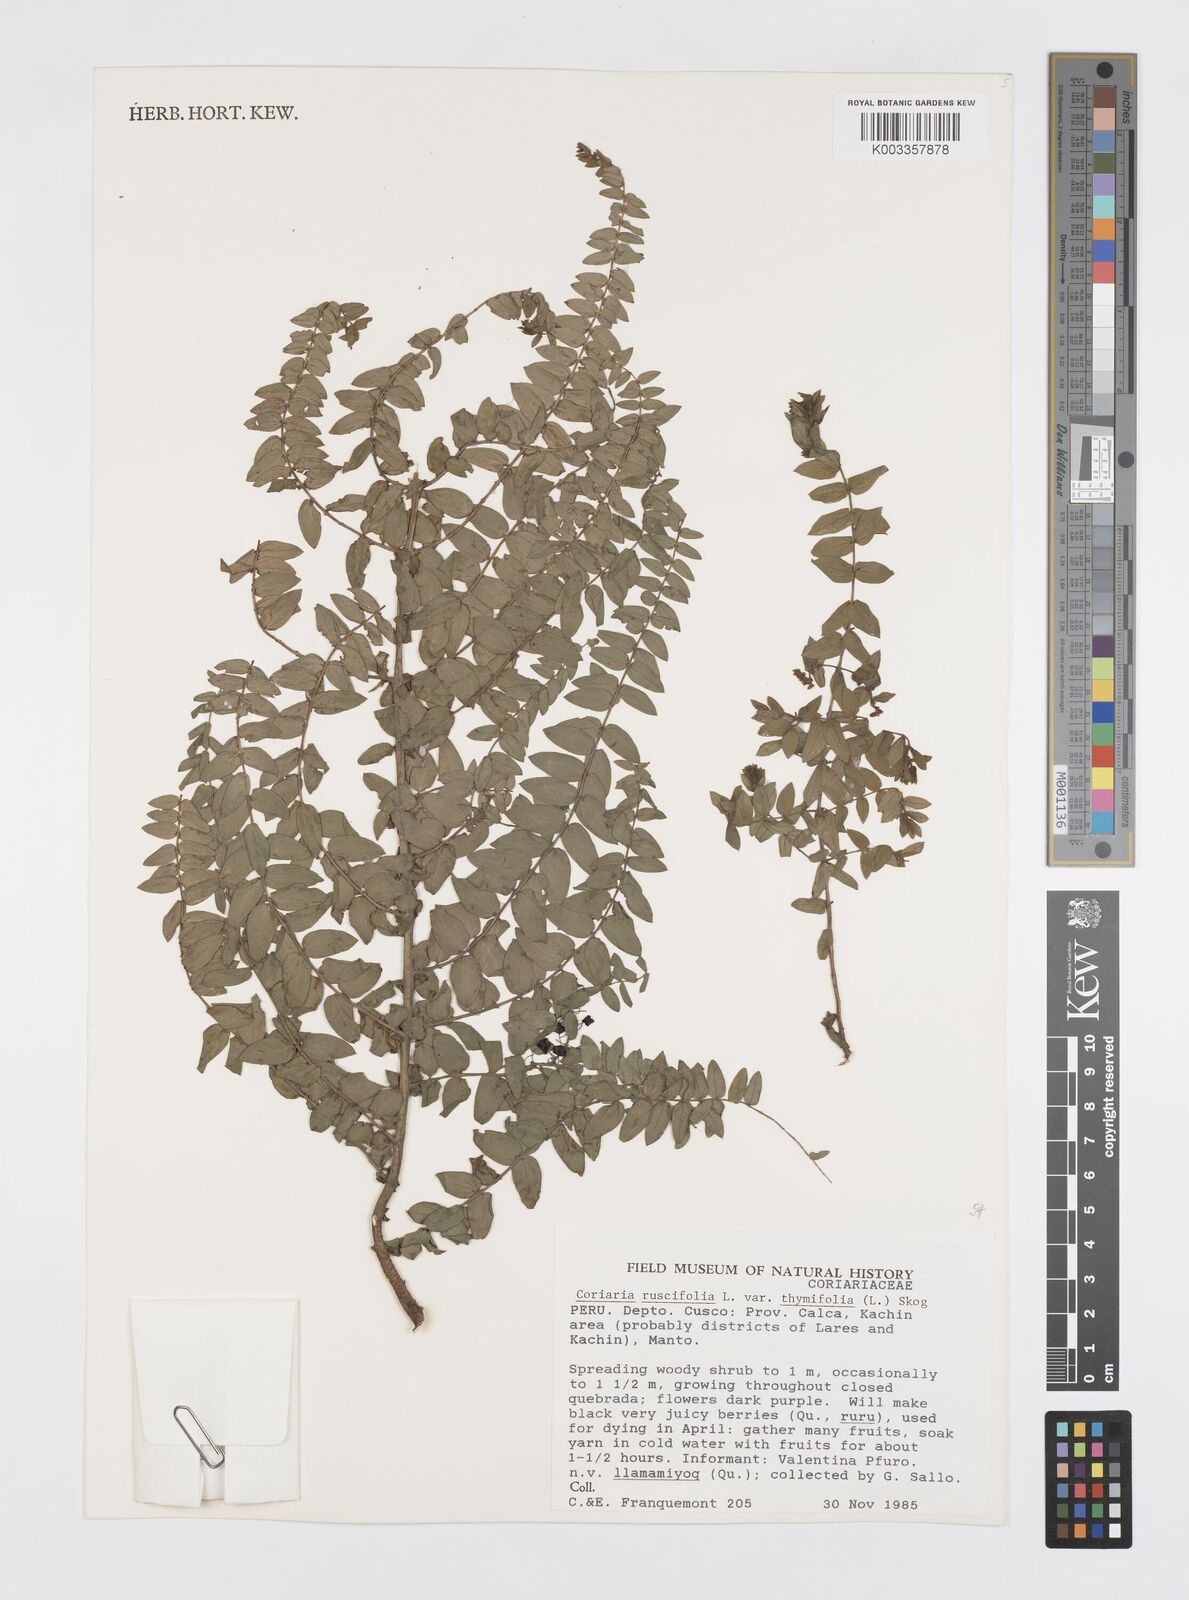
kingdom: Plantae
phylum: Tracheophyta
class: Magnoliopsida
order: Cucurbitales
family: Coriariaceae
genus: Coriaria
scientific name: Coriaria ruscifolia
